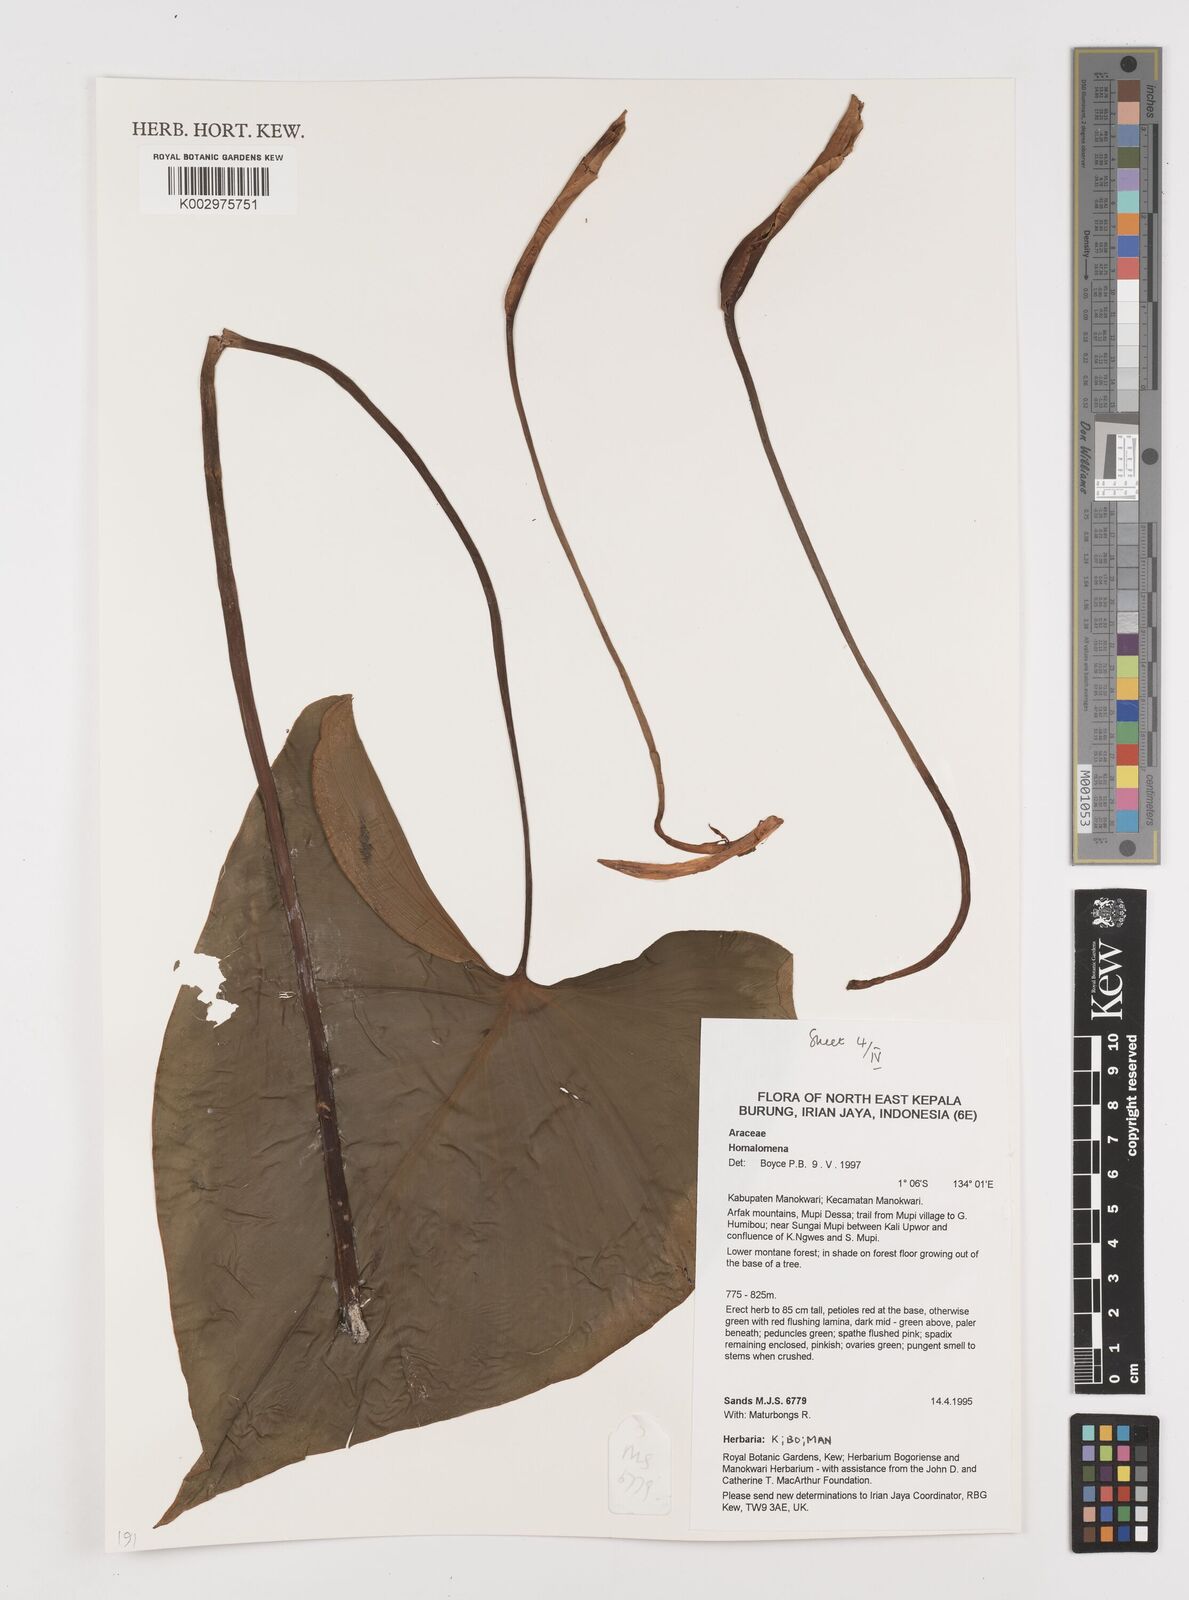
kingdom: Plantae
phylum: Tracheophyta
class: Liliopsida
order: Alismatales
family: Araceae
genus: Homalomena
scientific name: Homalomena
